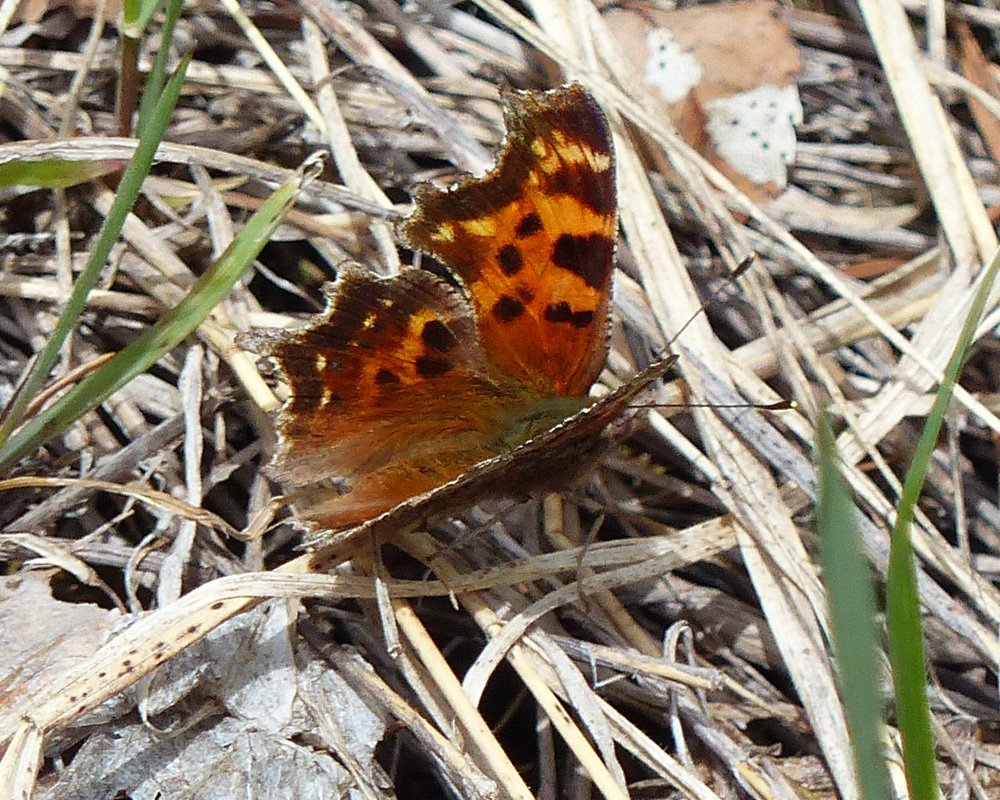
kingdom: Animalia
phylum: Arthropoda
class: Insecta
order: Lepidoptera
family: Nymphalidae
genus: Polygonia
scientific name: Polygonia faunus
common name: Green Comma
